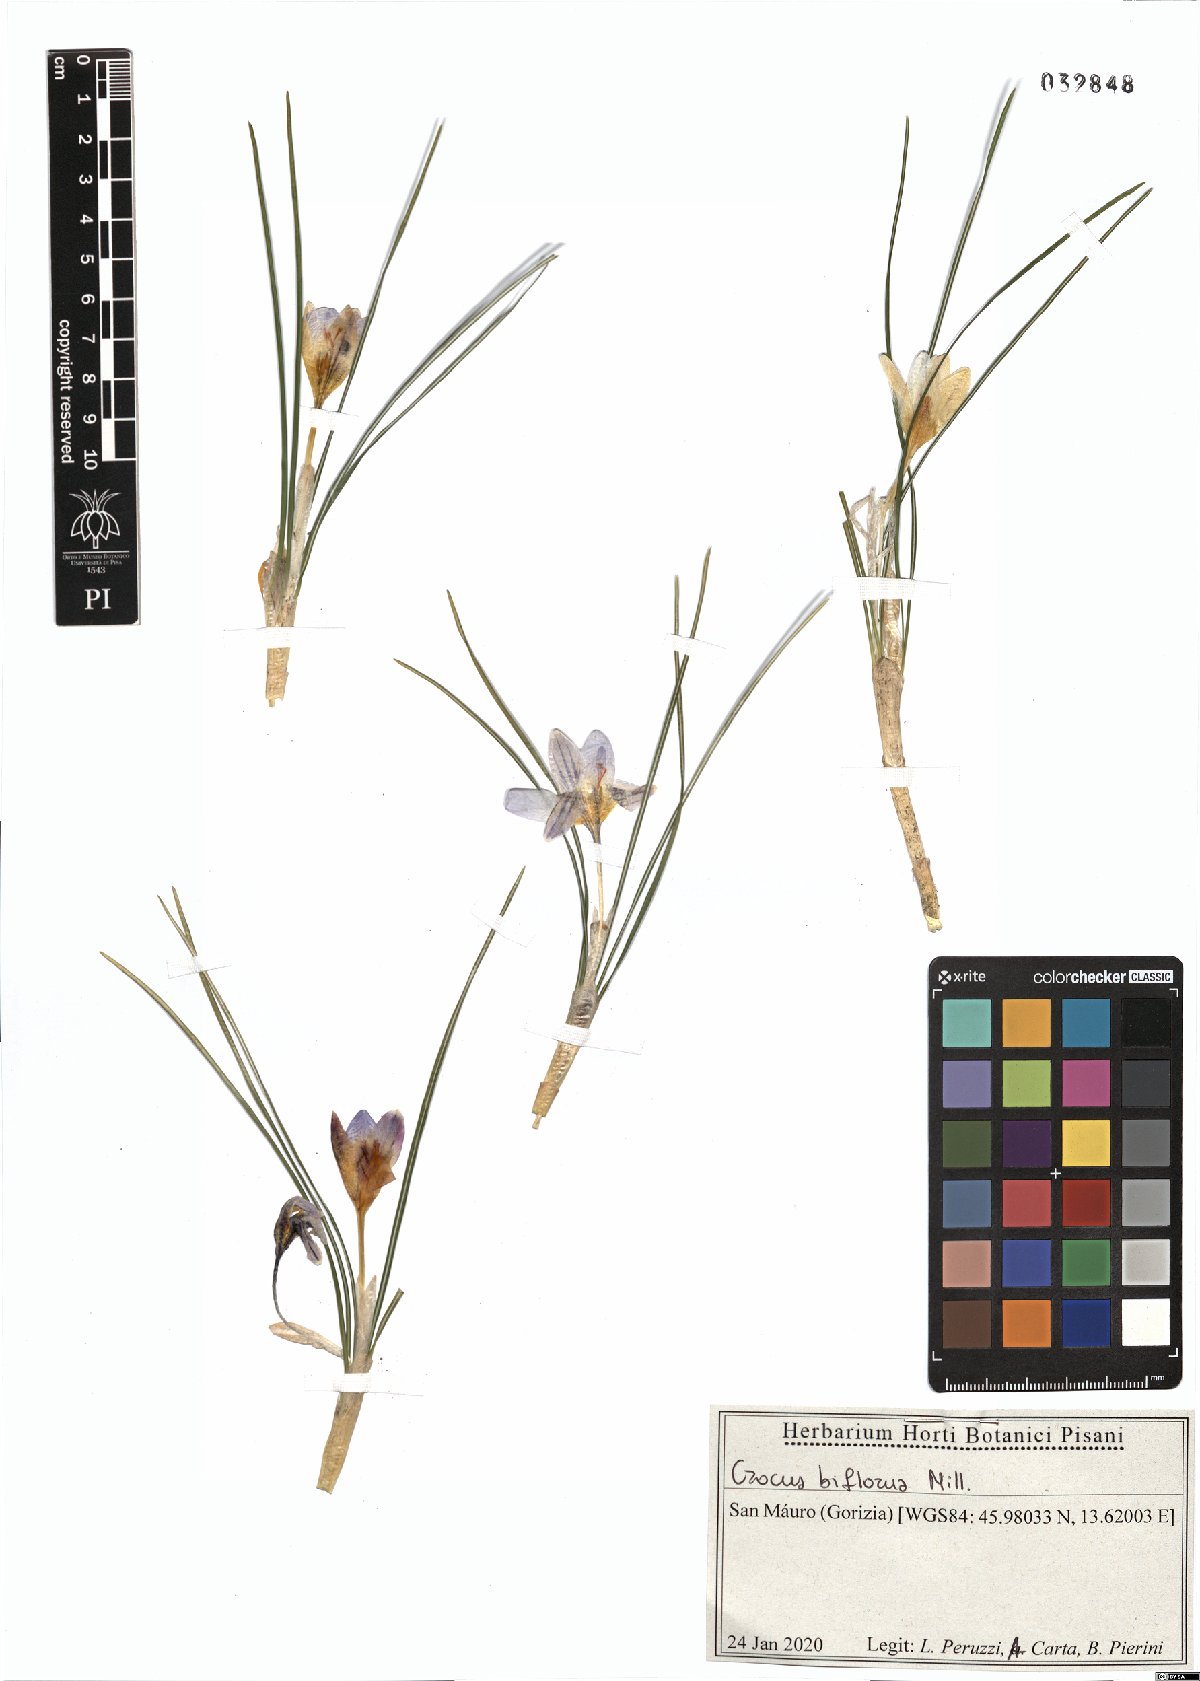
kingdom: Plantae
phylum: Tracheophyta
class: Liliopsida
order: Asparagales
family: Iridaceae
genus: Crocus
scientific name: Crocus biflorus
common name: Silvery crocus
